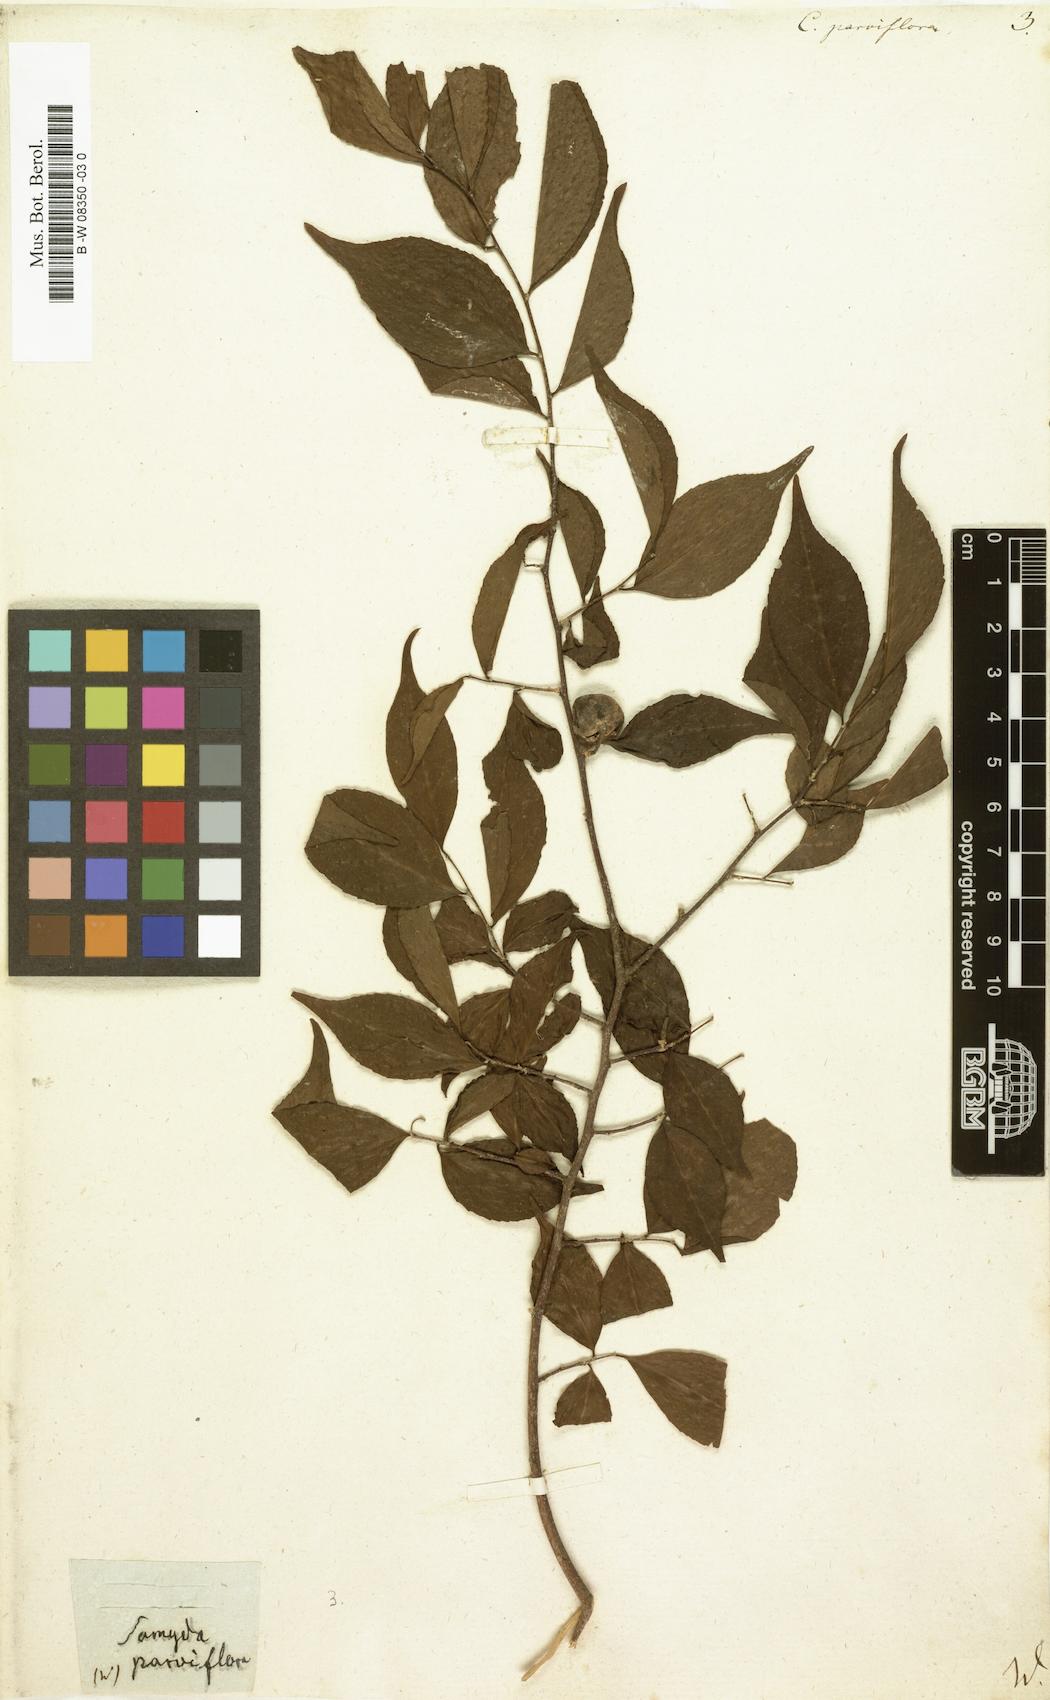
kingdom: Plantae
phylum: Tracheophyta
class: Magnoliopsida
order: Malpighiales
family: Salicaceae
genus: Casearia
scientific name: Casearia
